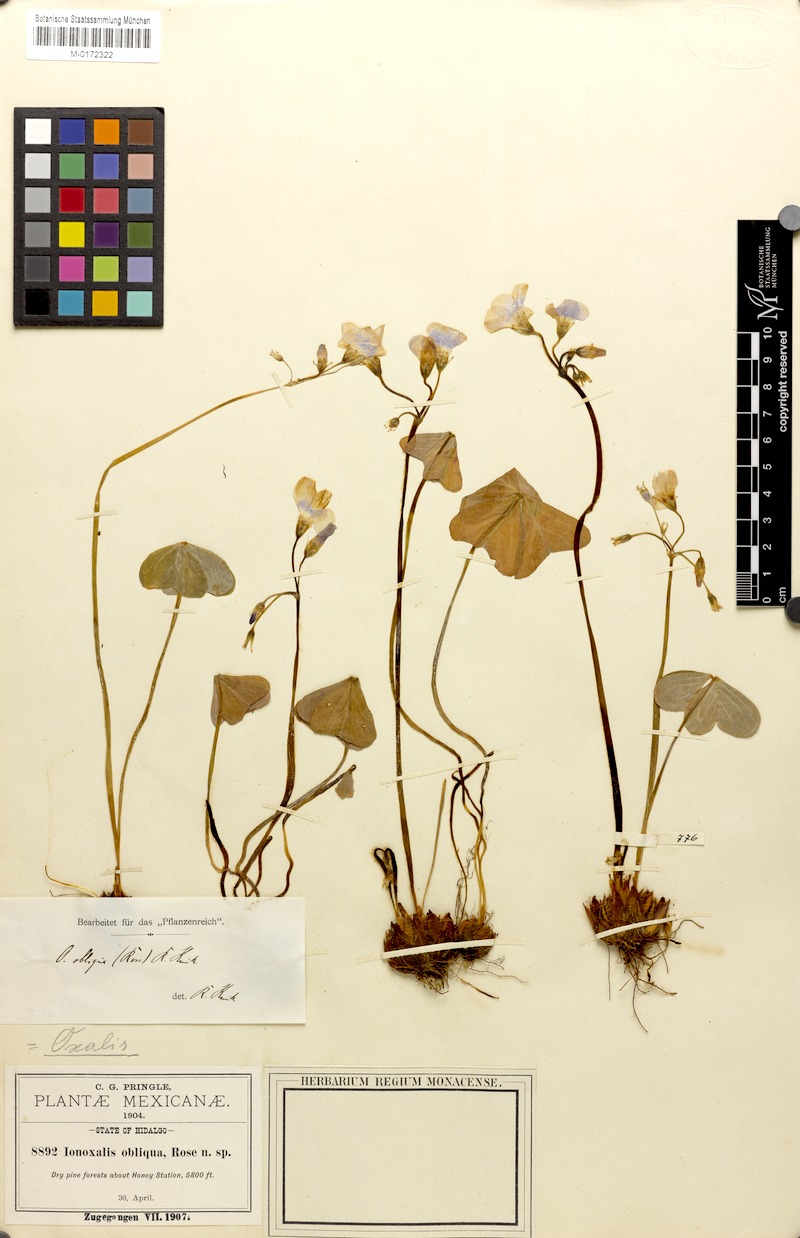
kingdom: Plantae
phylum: Tracheophyta
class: Magnoliopsida
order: Oxalidales
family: Oxalidaceae
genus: Oxalis
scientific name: Oxalis jacquiniana
